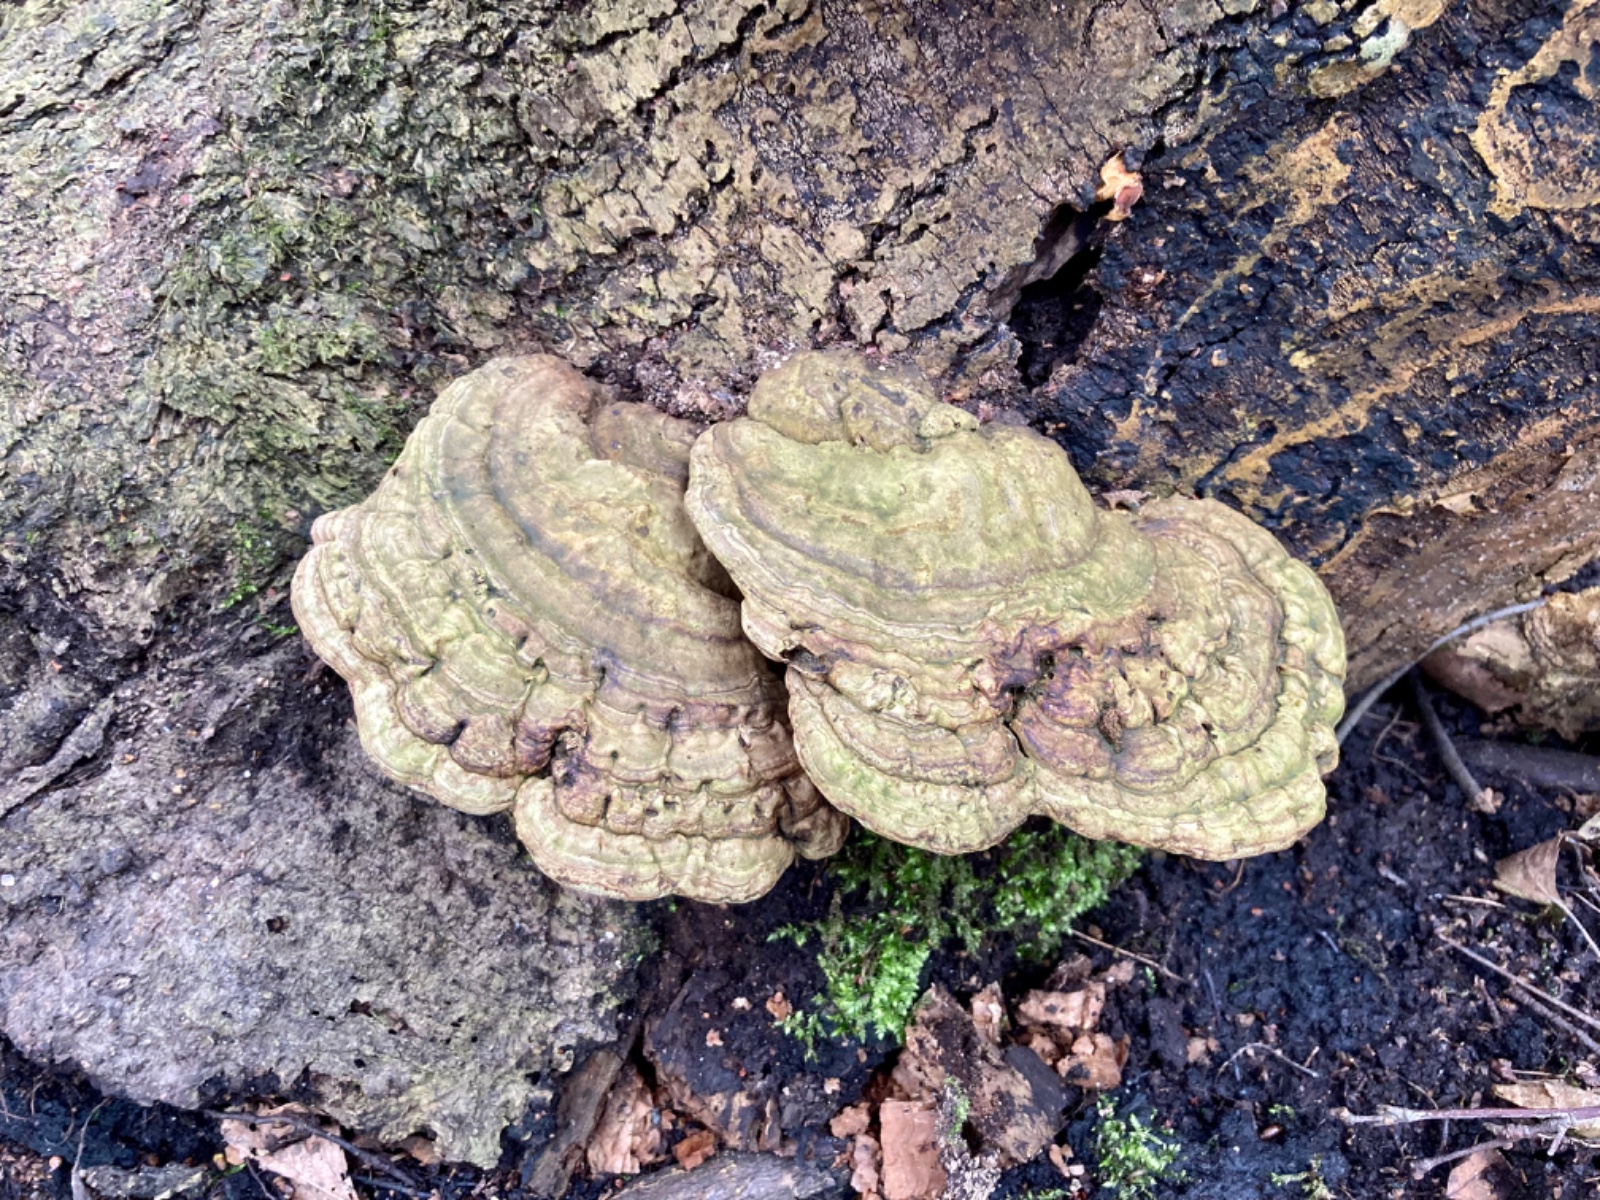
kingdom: Fungi
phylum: Basidiomycota
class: Agaricomycetes
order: Polyporales
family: Polyporaceae
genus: Ganoderma
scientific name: Ganoderma applanatum
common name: flad lakporesvamp
